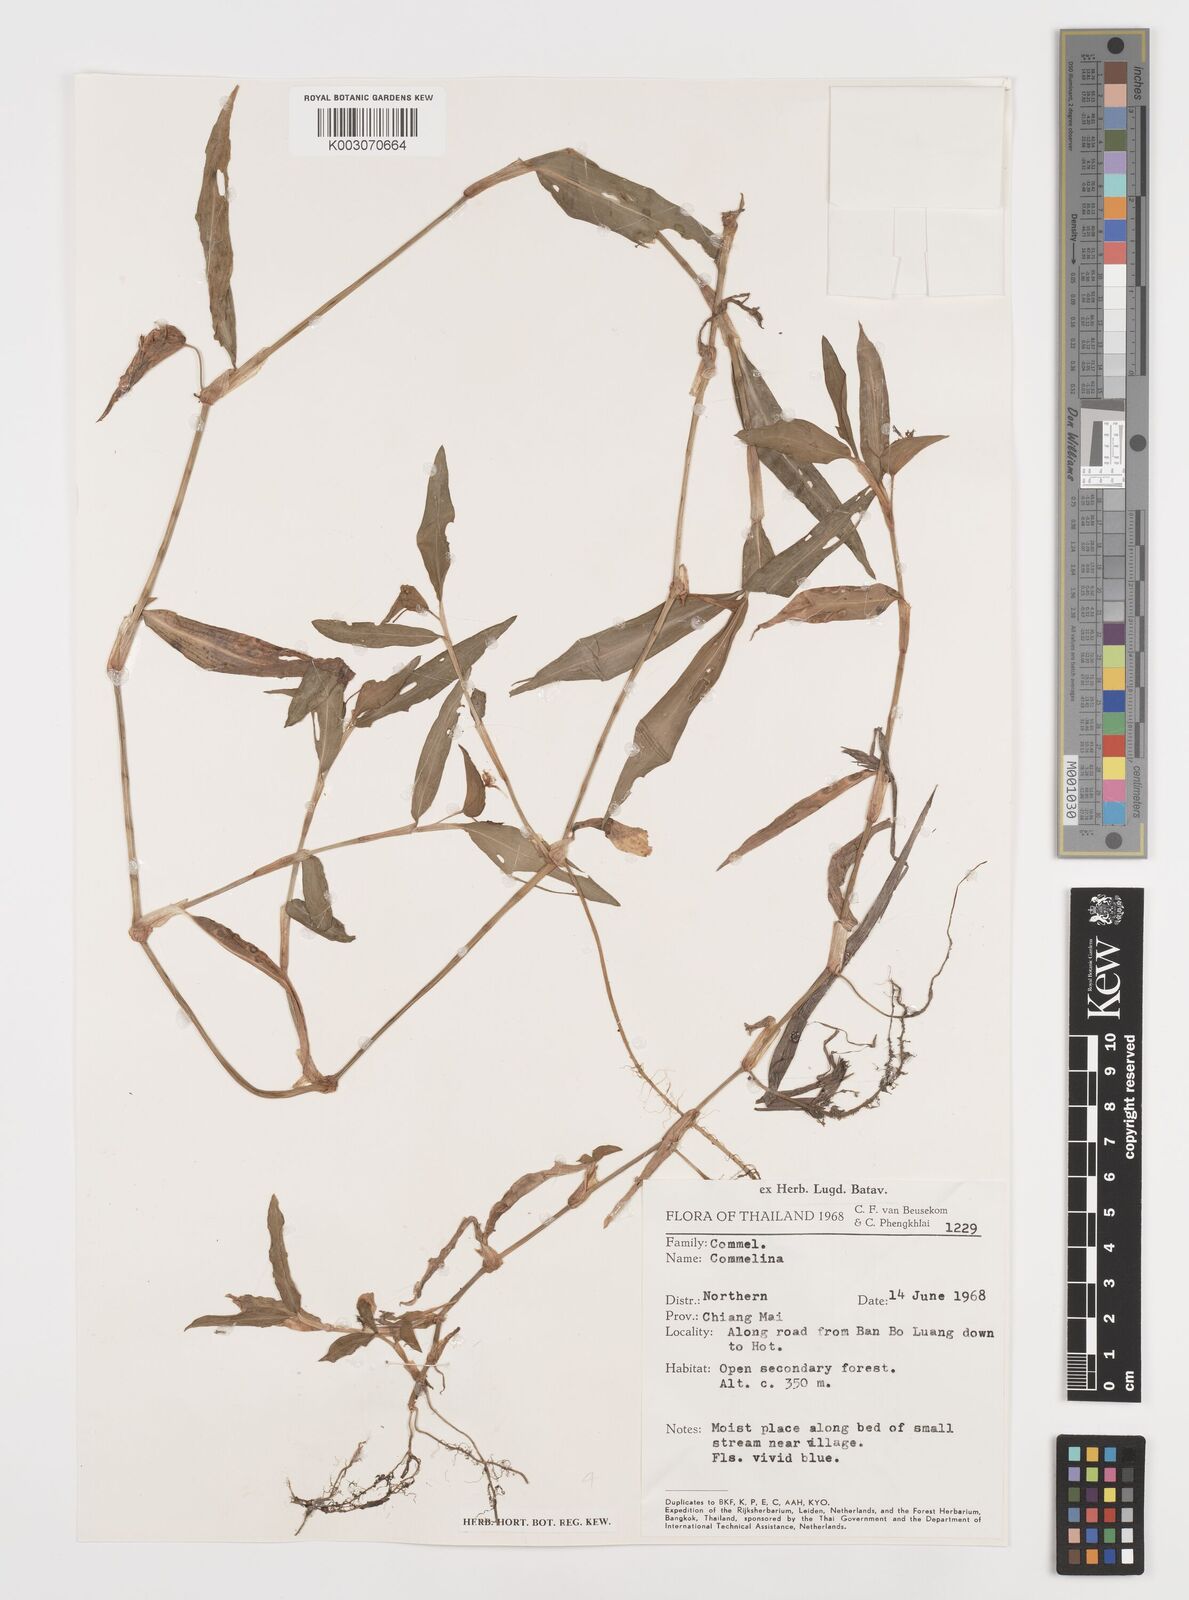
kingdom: Plantae
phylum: Tracheophyta
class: Liliopsida
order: Commelinales
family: Commelinaceae
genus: Commelina
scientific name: Commelina
